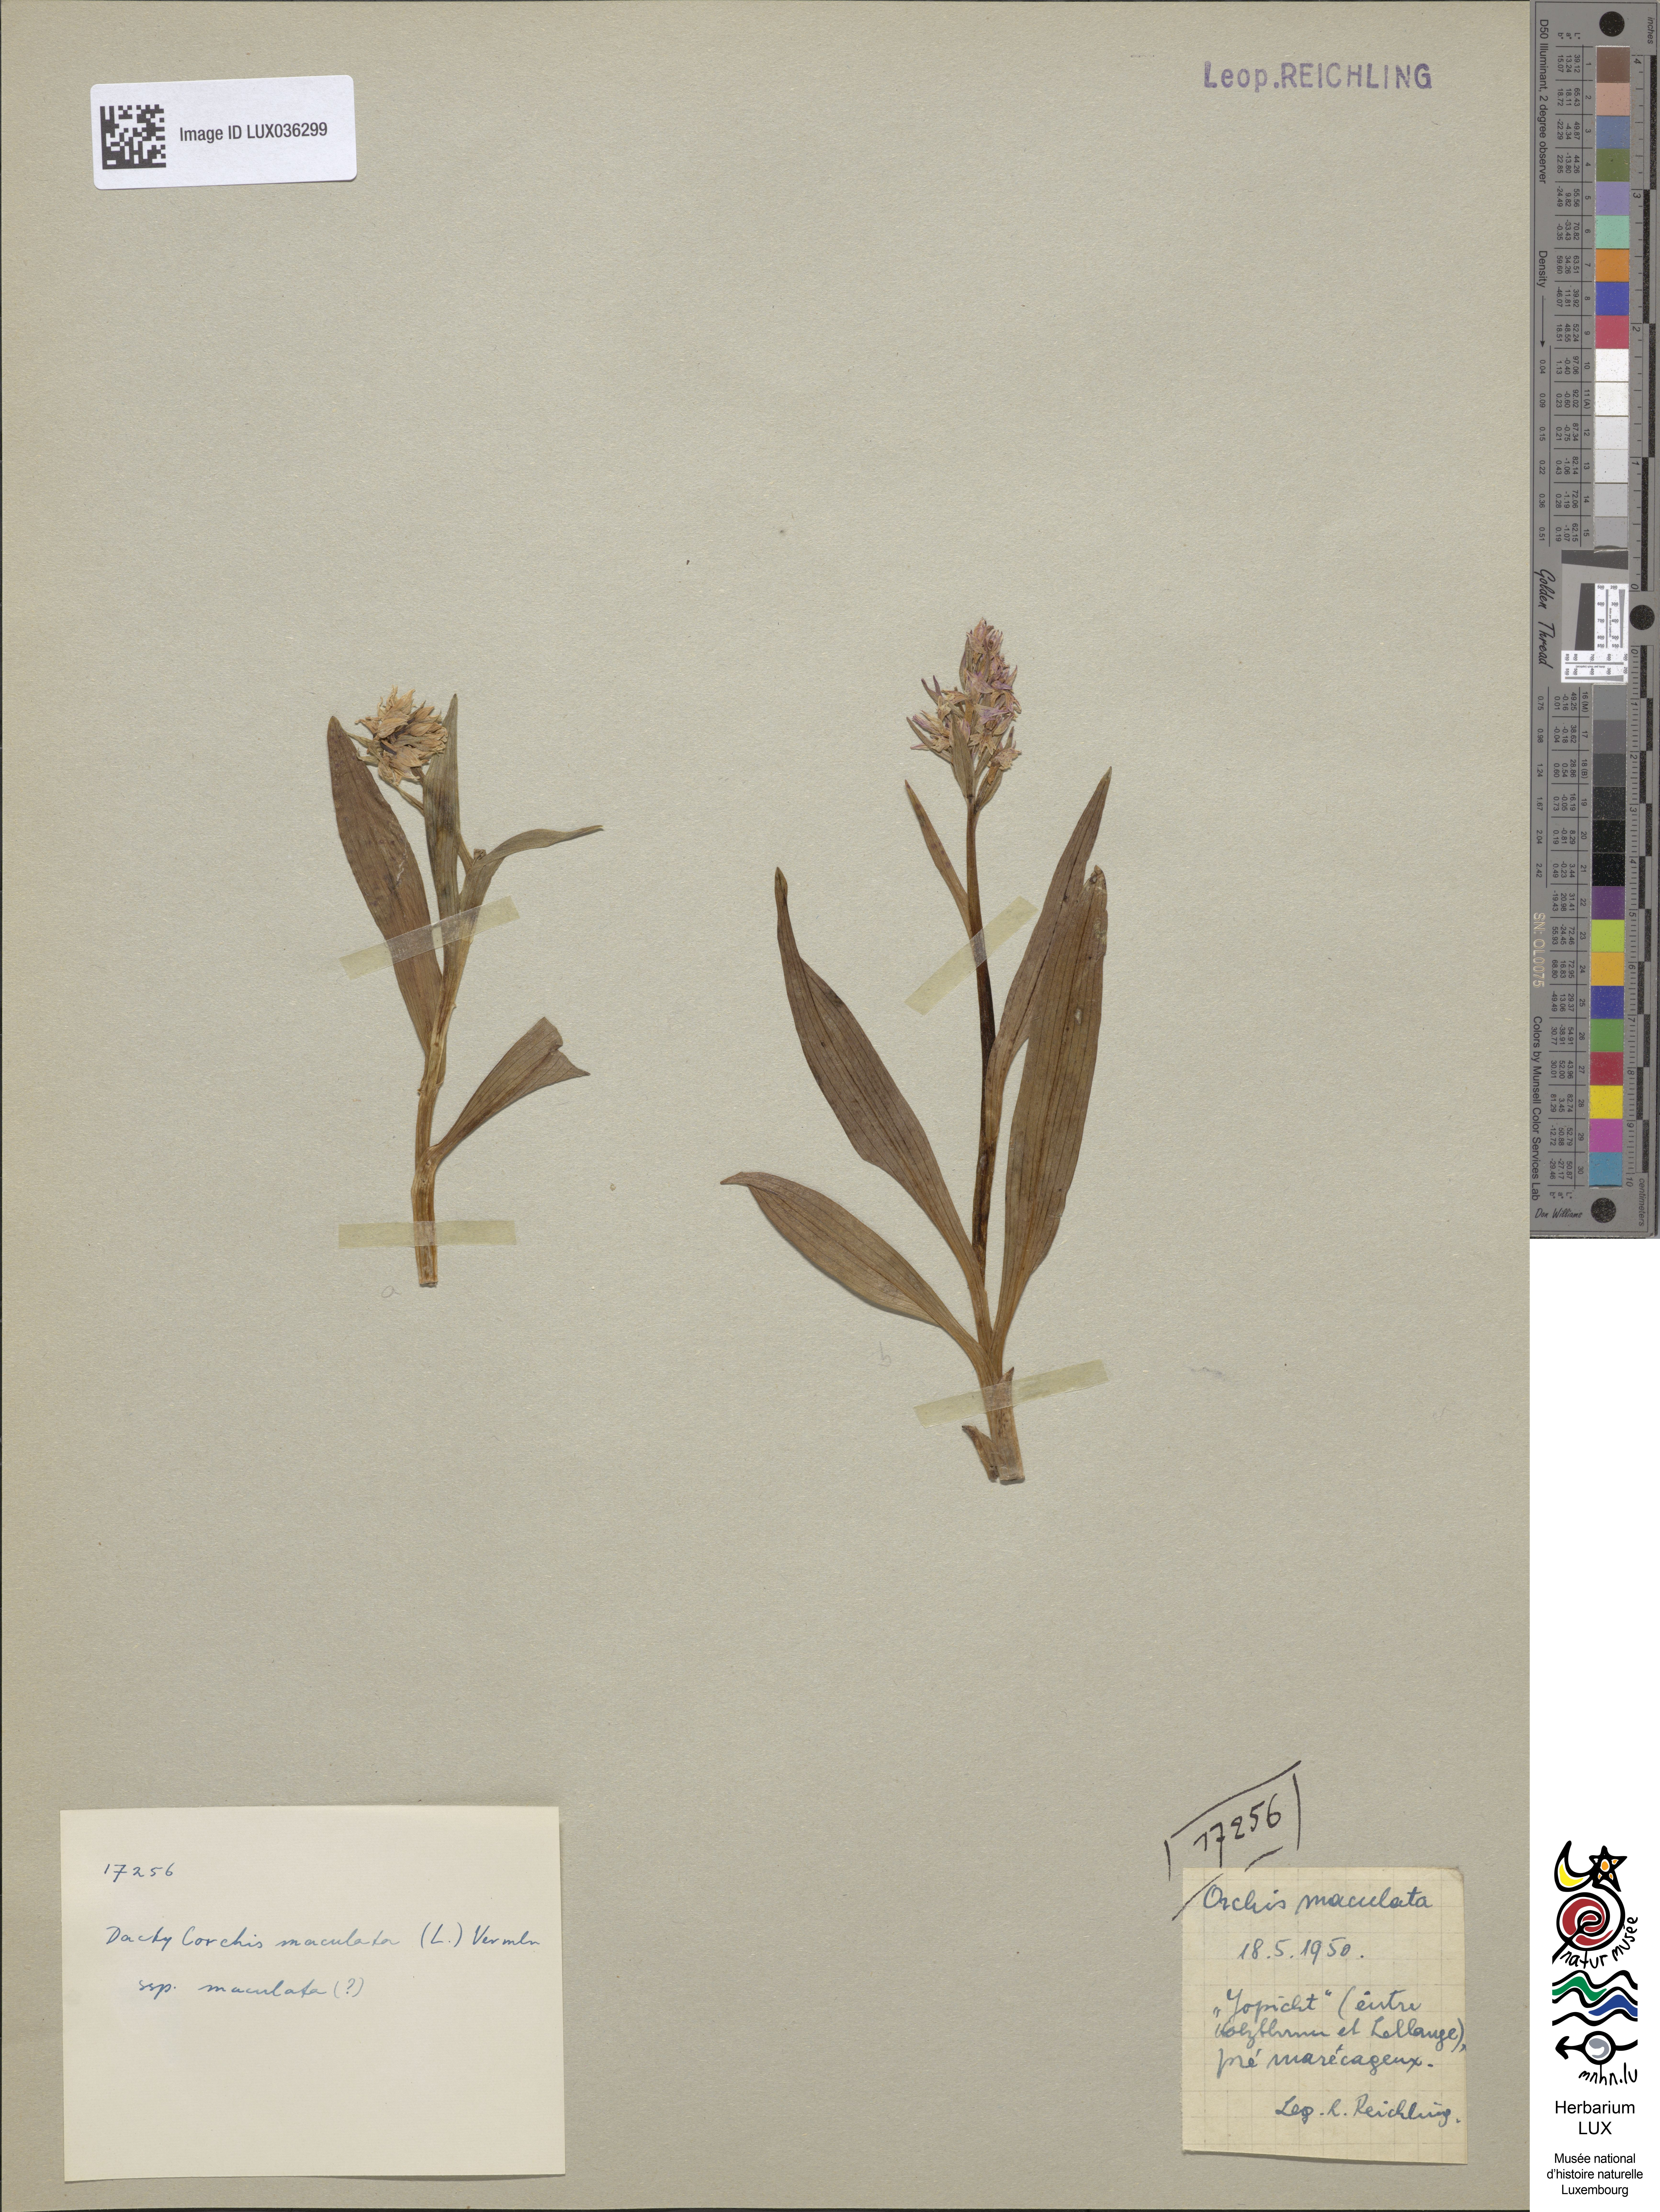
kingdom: Plantae
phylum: Tracheophyta
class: Liliopsida
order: Asparagales
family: Orchidaceae
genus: Dactylorhiza
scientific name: Dactylorhiza maculata
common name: Heath spotted-orchid
